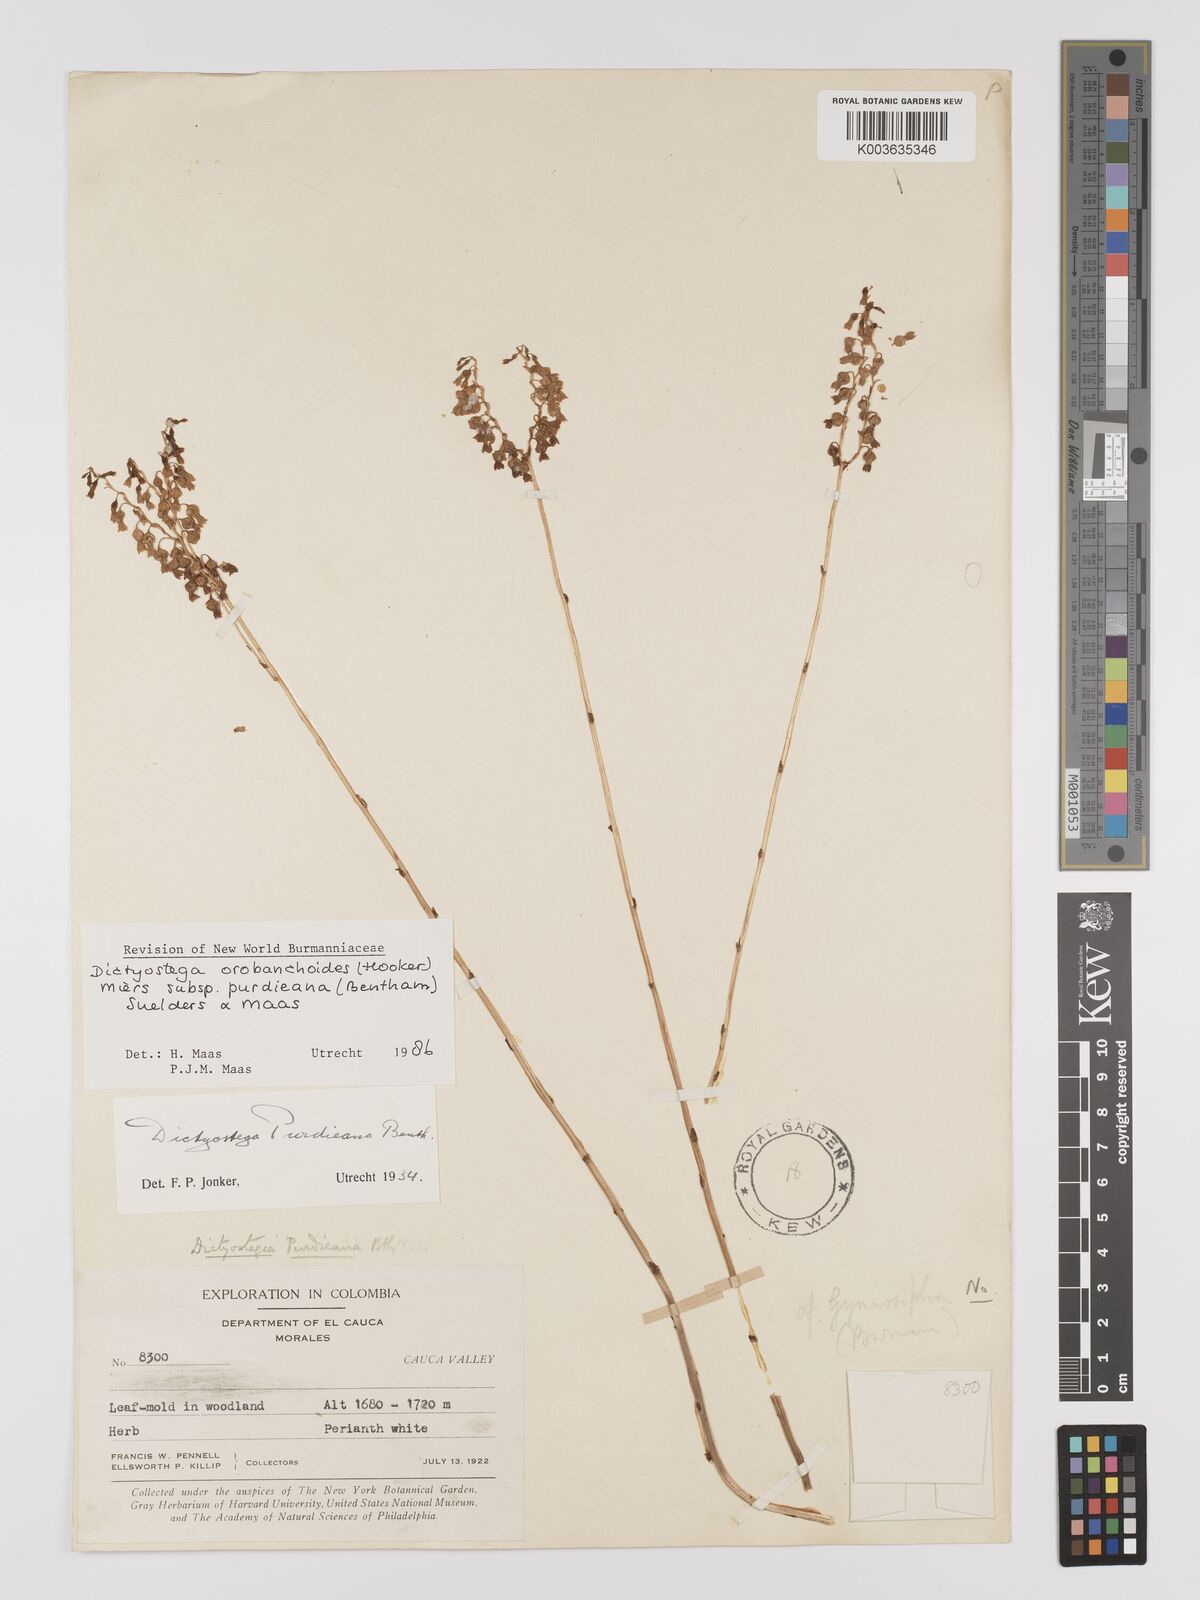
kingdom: Plantae
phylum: Tracheophyta
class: Liliopsida
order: Dioscoreales
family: Burmanniaceae
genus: Dictyostega
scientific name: Dictyostega orobanchoides
